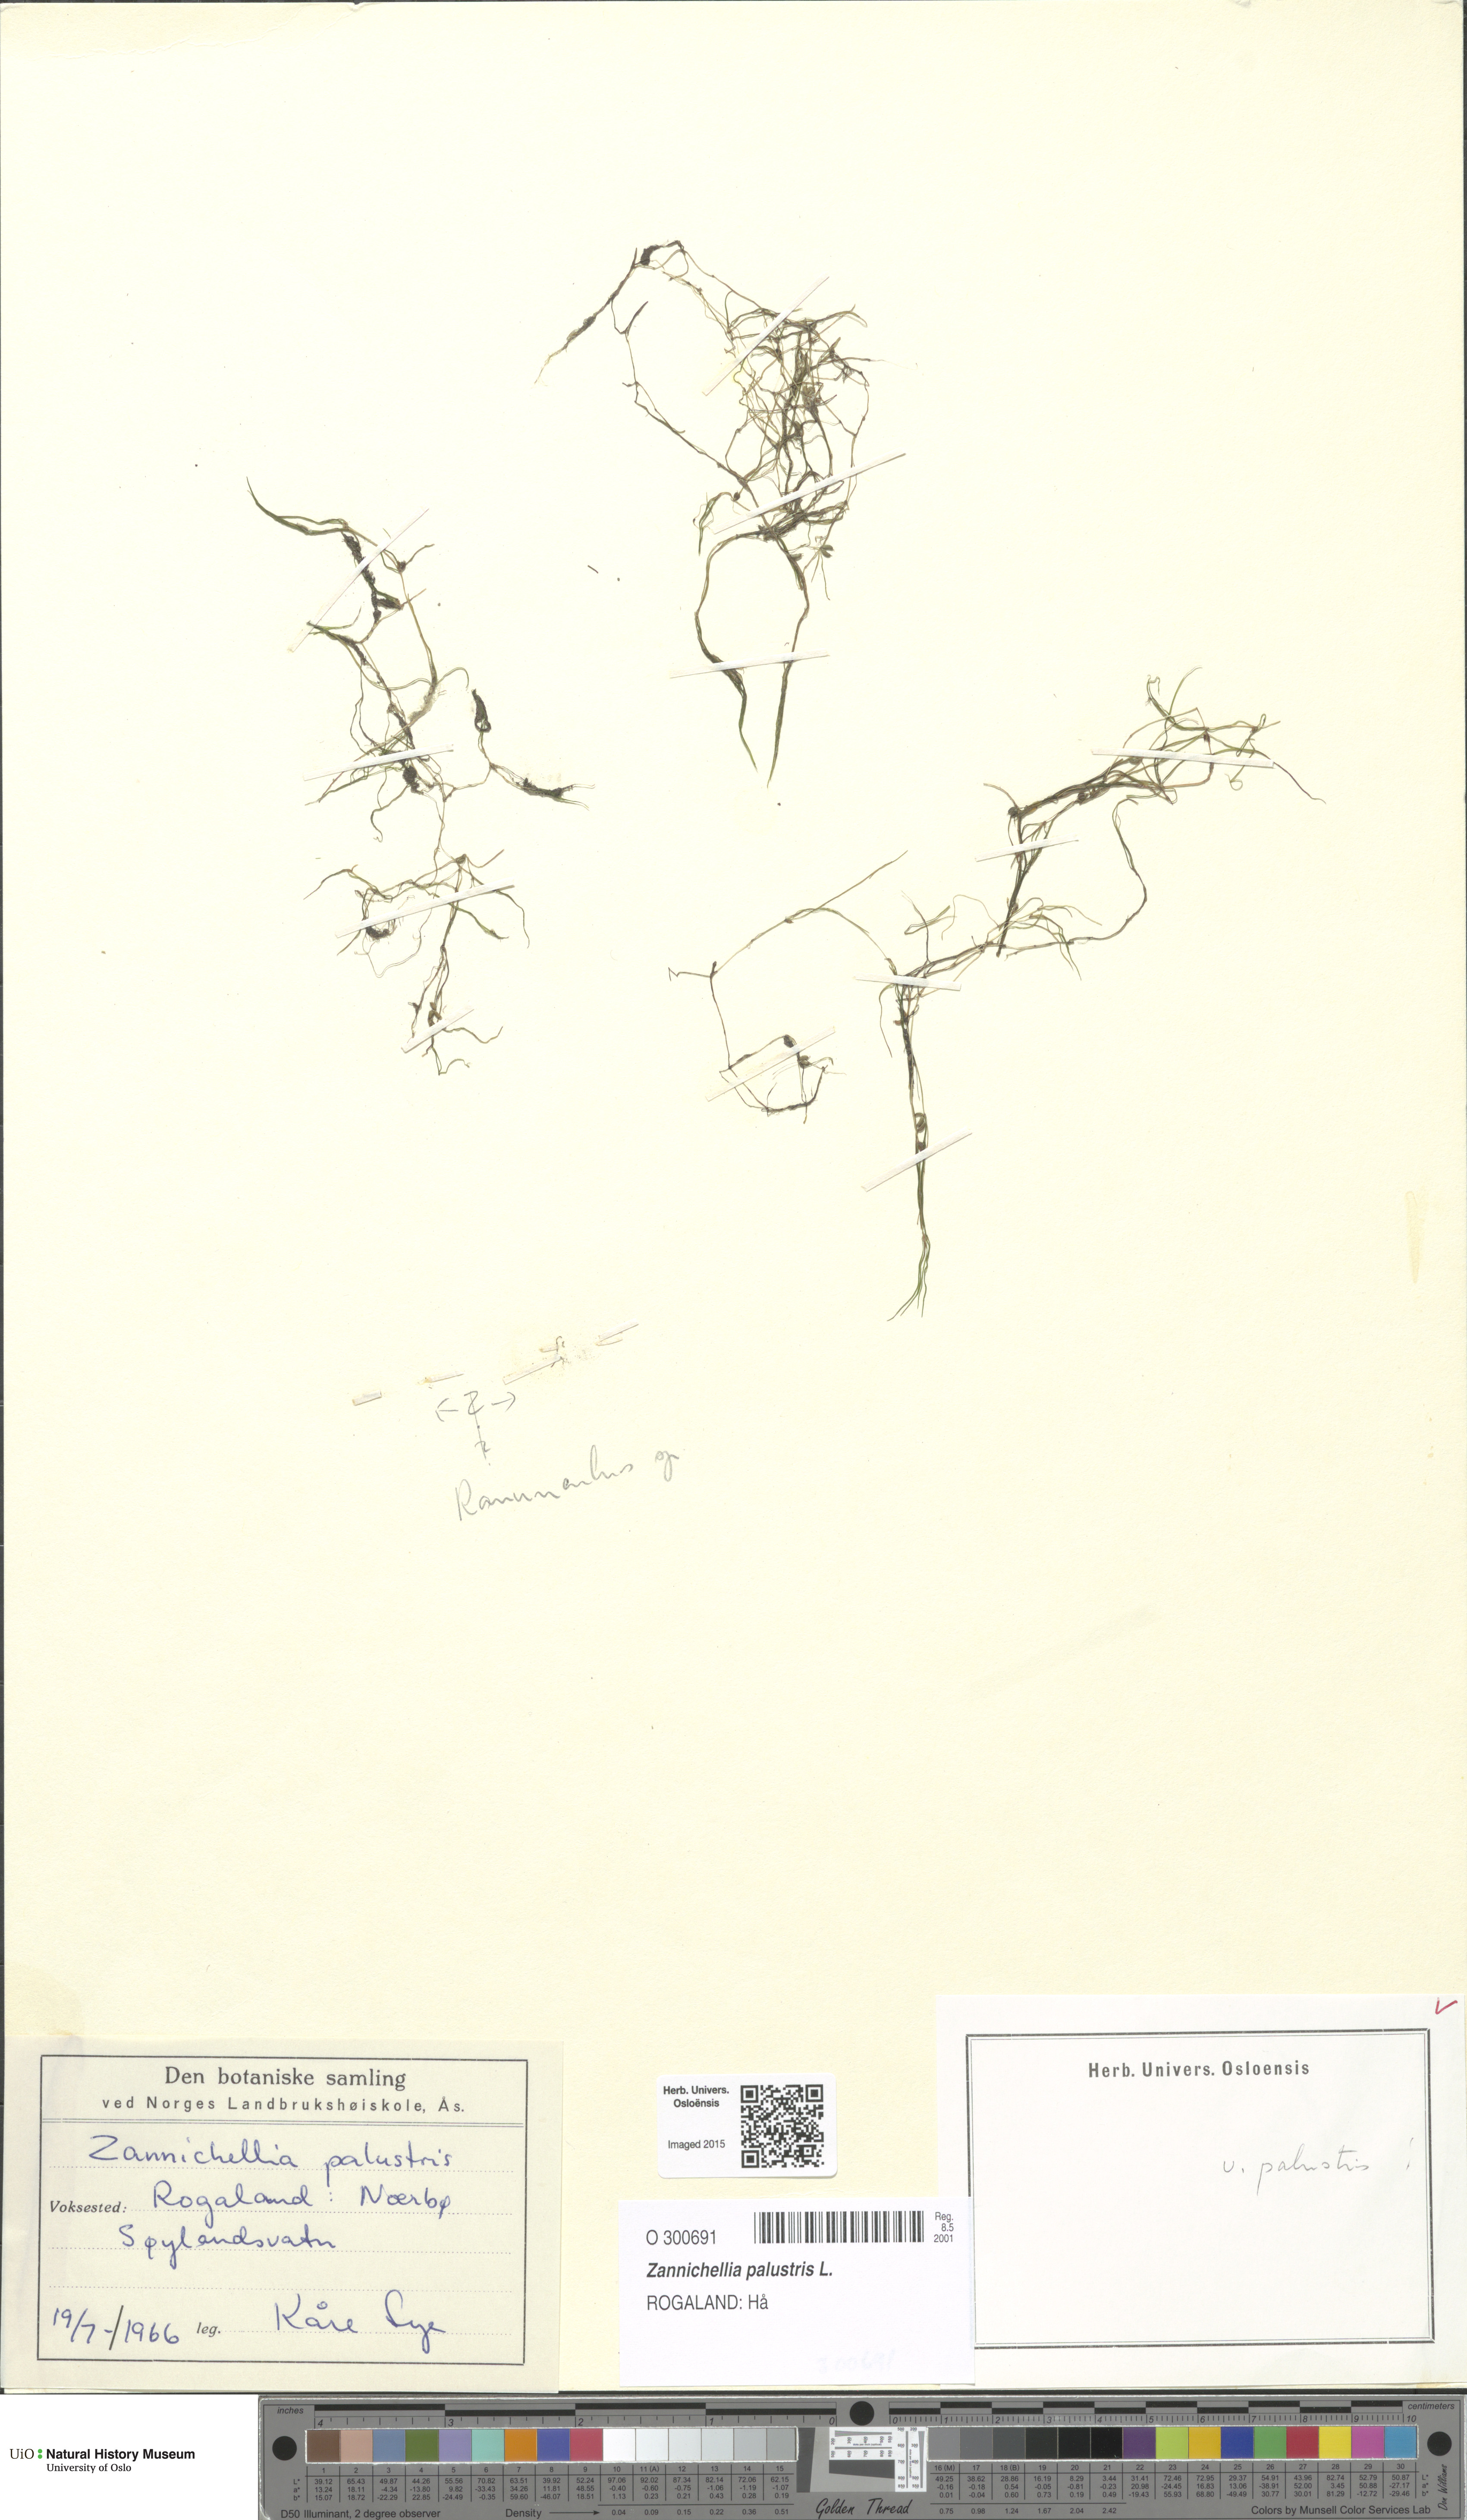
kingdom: Plantae
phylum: Tracheophyta
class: Liliopsida
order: Alismatales
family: Potamogetonaceae
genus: Zannichellia
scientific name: Zannichellia palustris
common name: Horned pondweed
